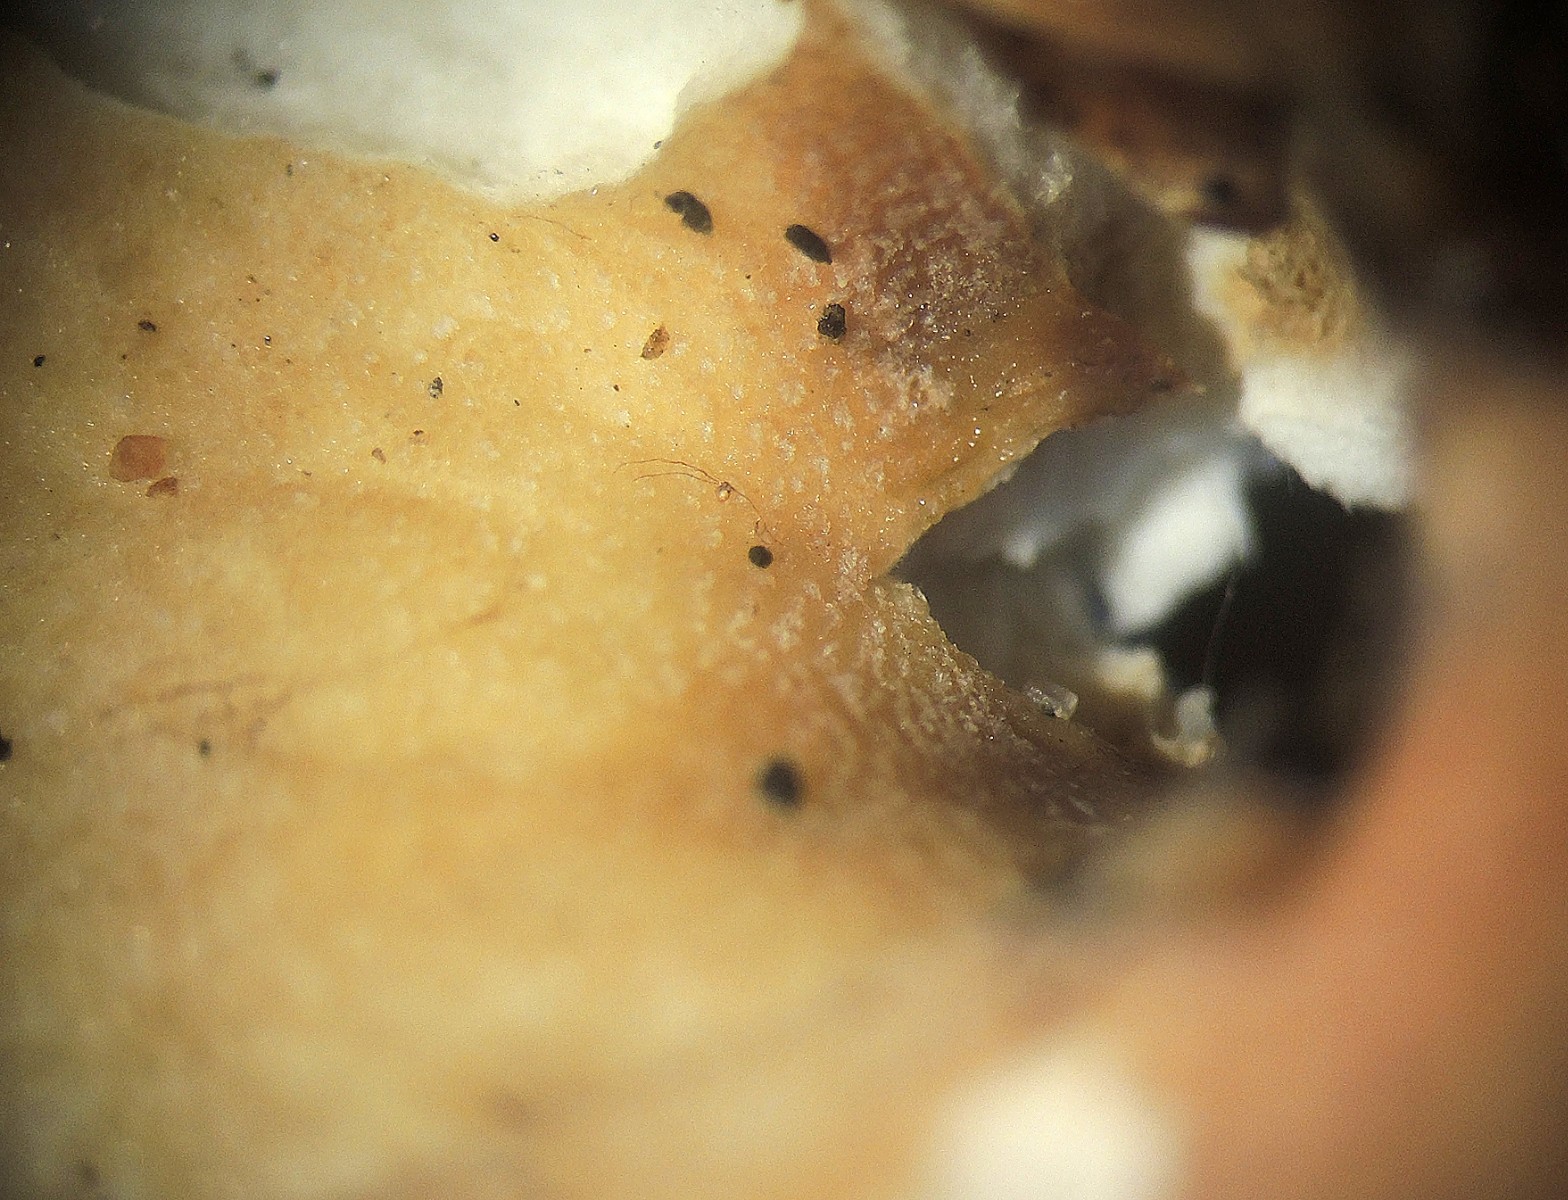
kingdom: Fungi
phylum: Basidiomycota
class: Agaricomycetes
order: Russulales
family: Russulaceae
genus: Russula
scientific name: Russula roseoaurantia
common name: kornet skørhat
